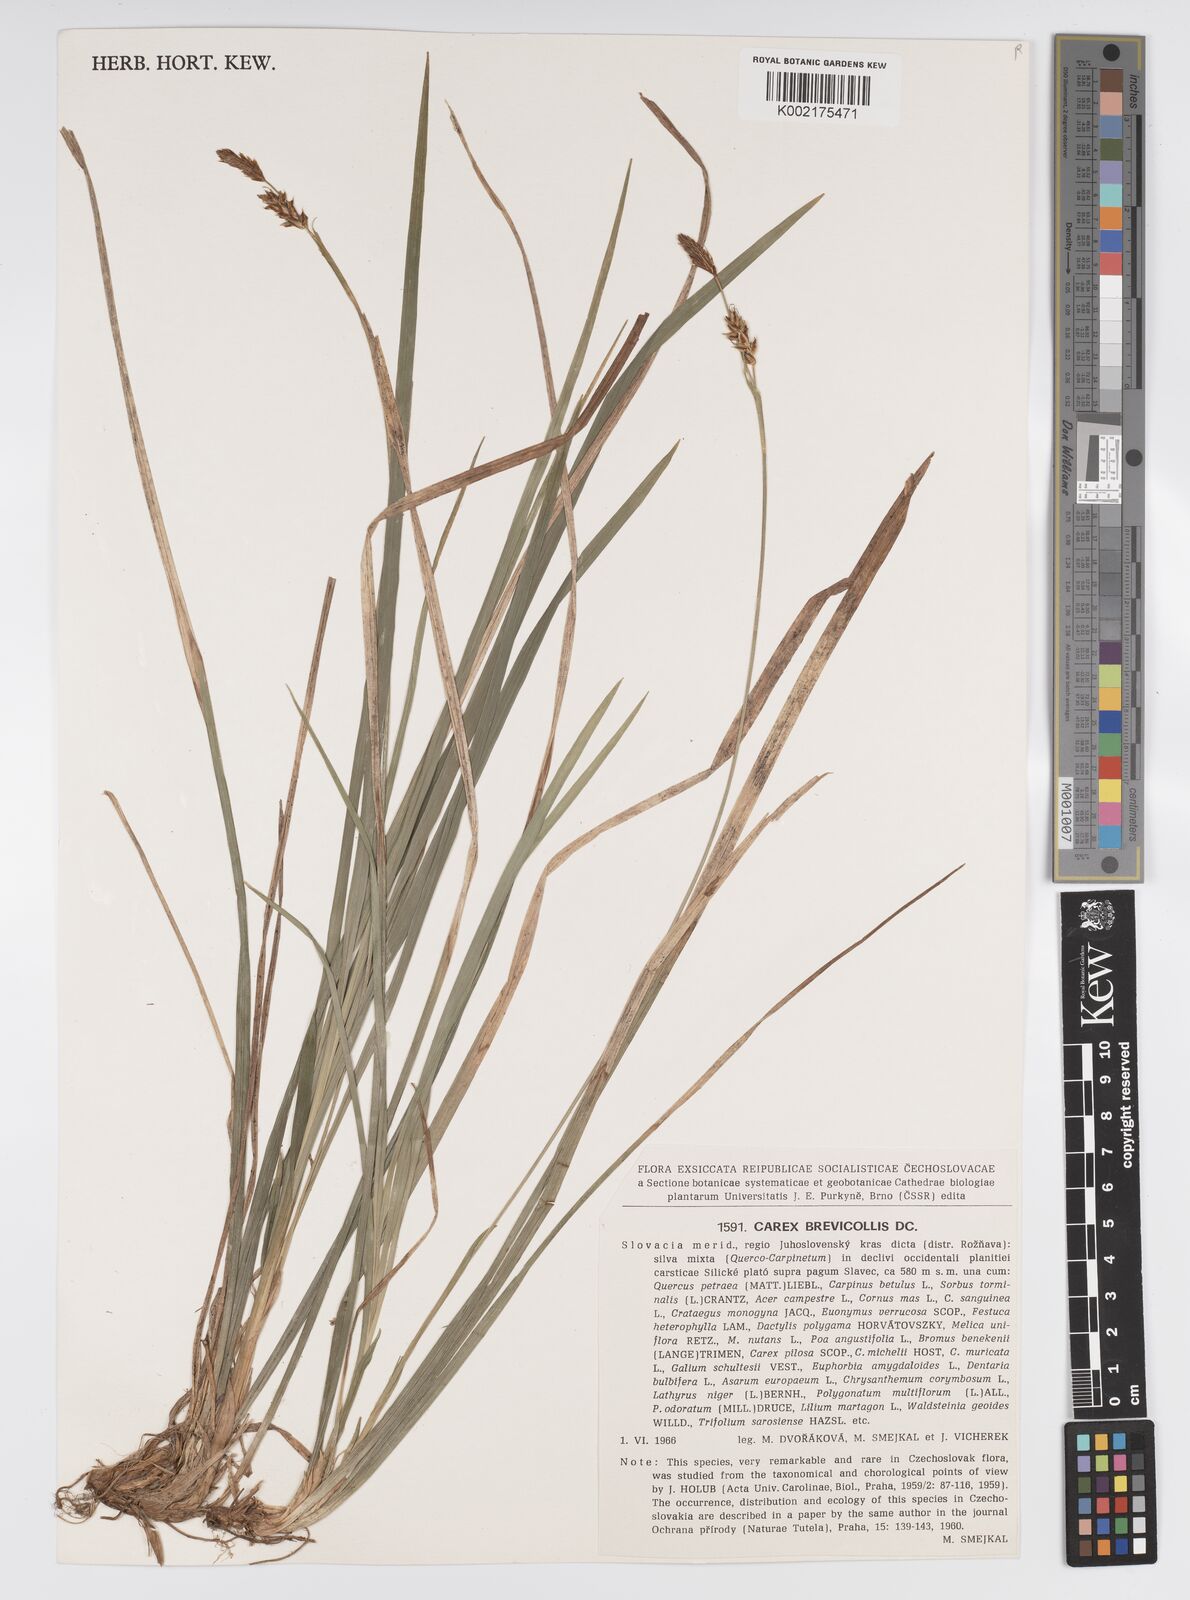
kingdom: Plantae
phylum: Tracheophyta
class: Liliopsida
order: Poales
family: Cyperaceae
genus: Carex
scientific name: Carex brevicollis
